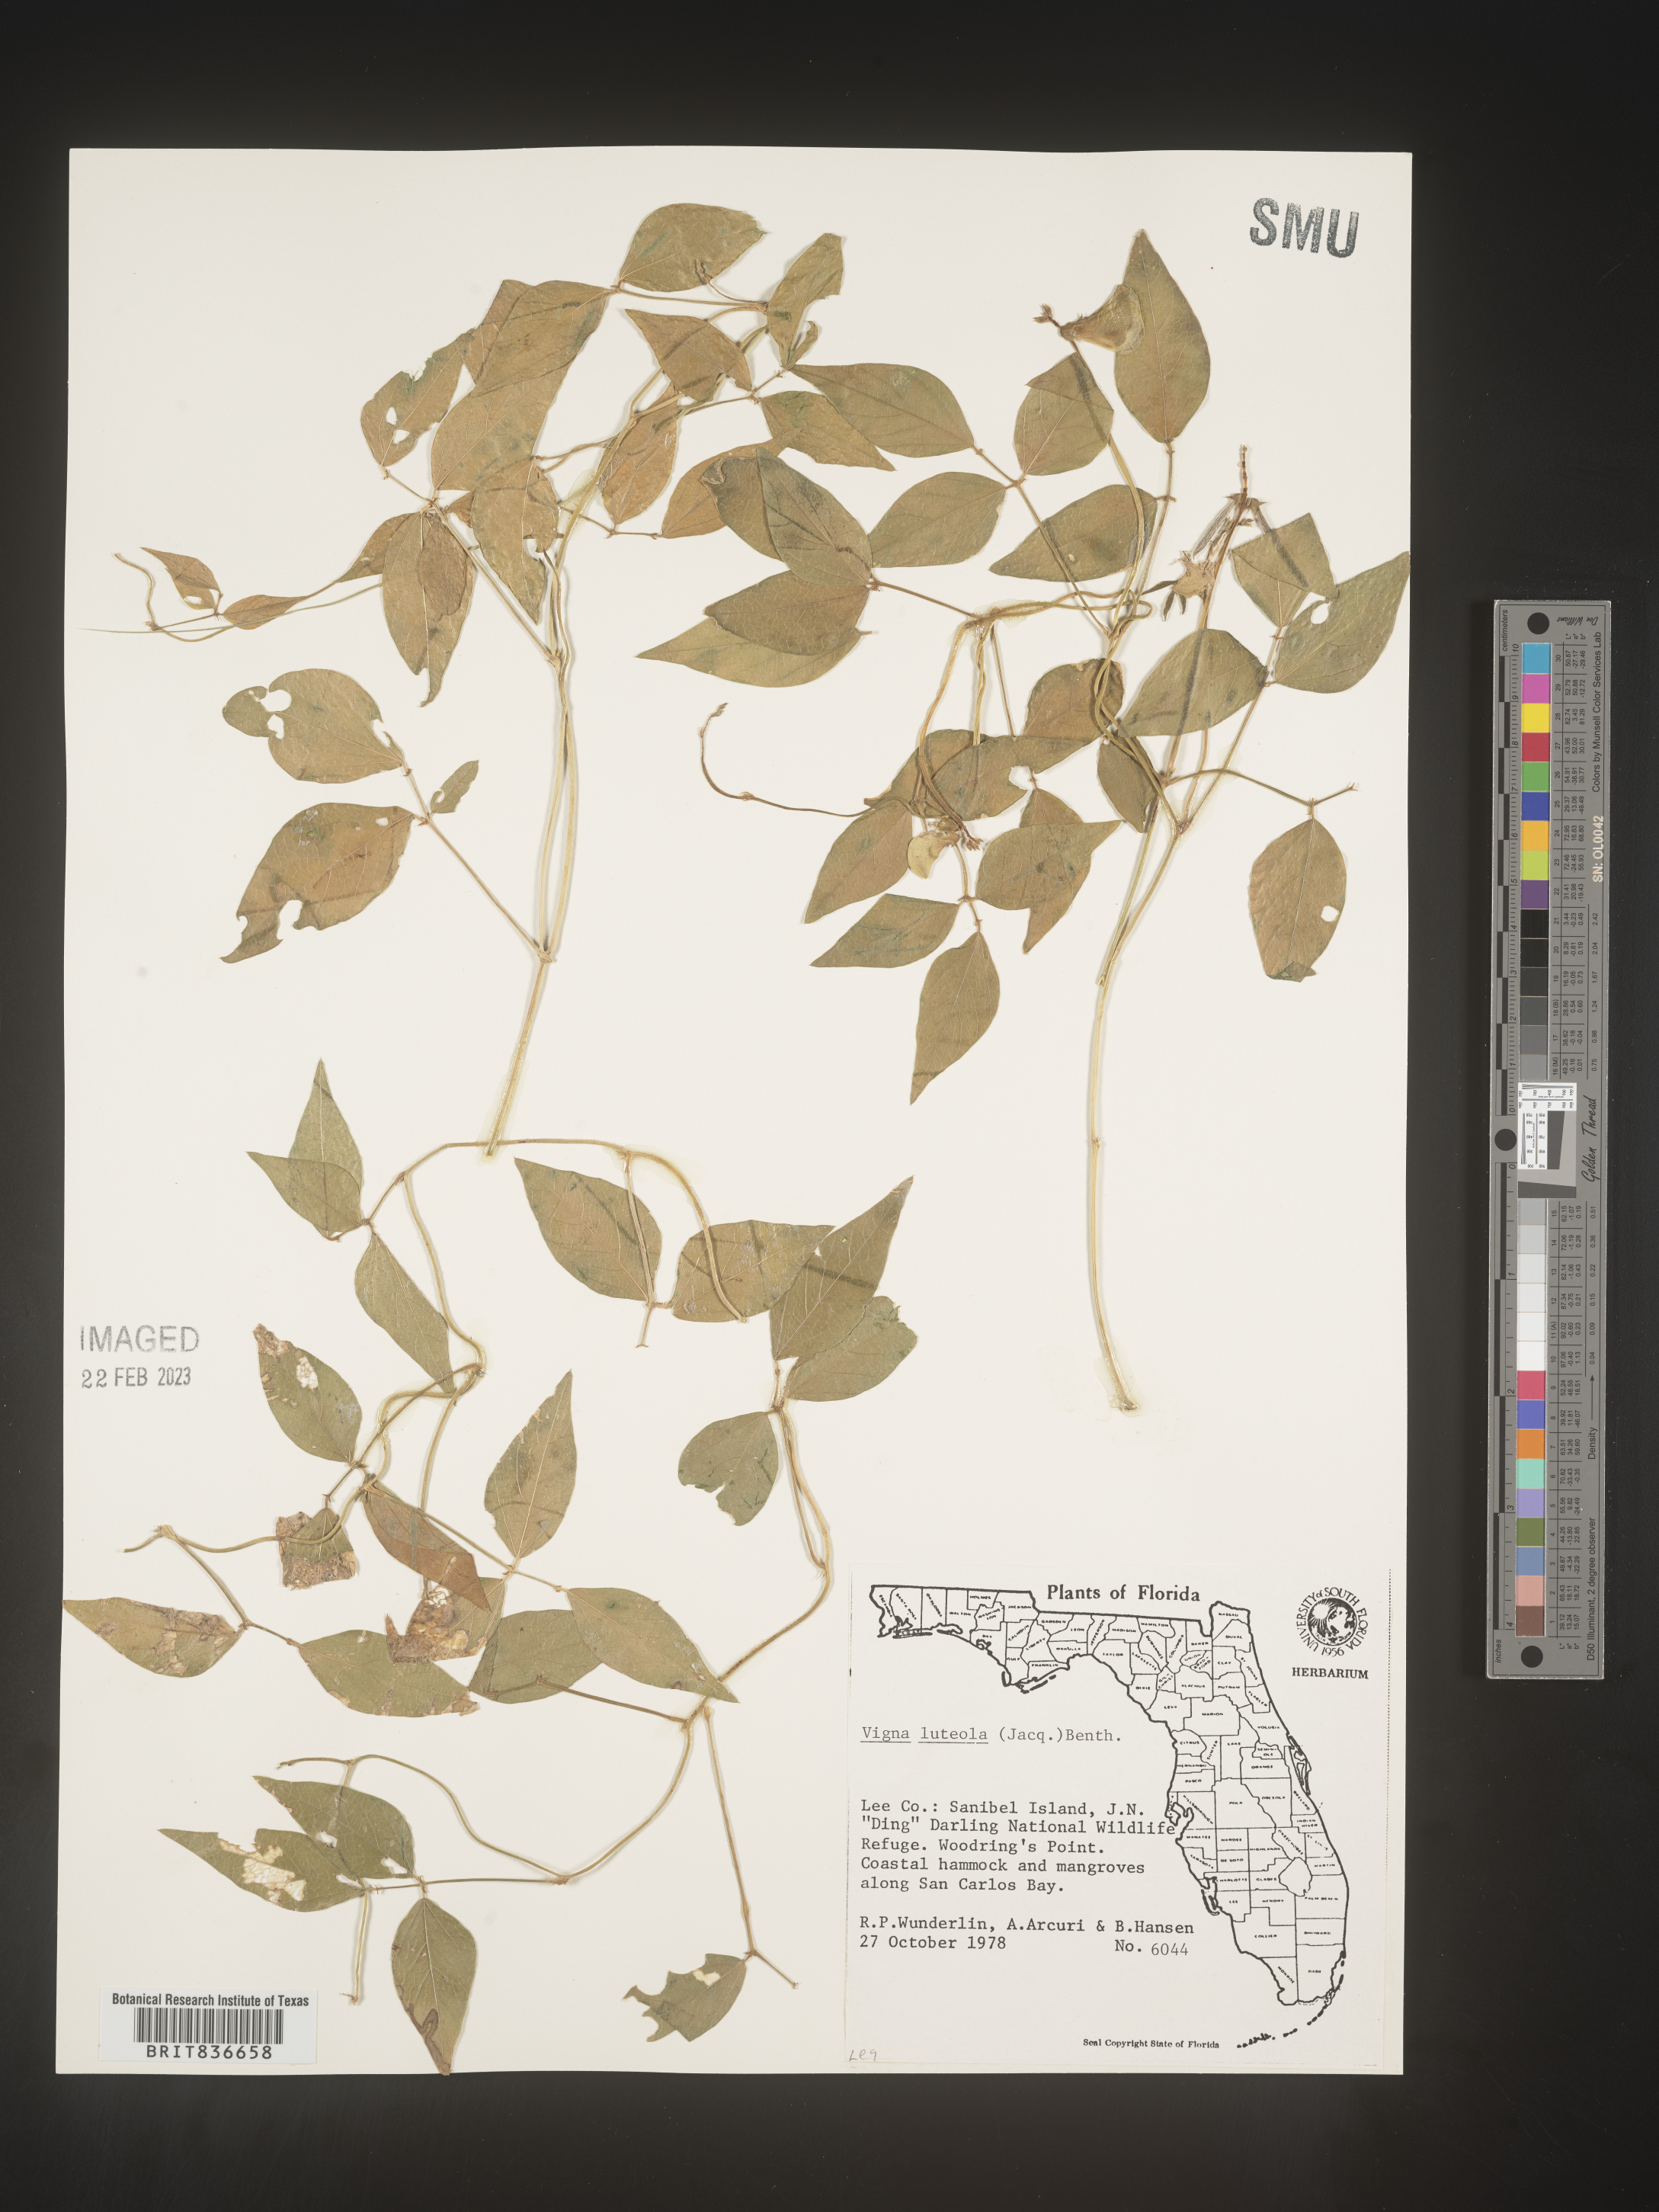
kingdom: Plantae
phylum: Tracheophyta
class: Magnoliopsida
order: Fabales
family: Fabaceae
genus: Vigna
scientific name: Vigna luteola
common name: Hairypod cowpea
